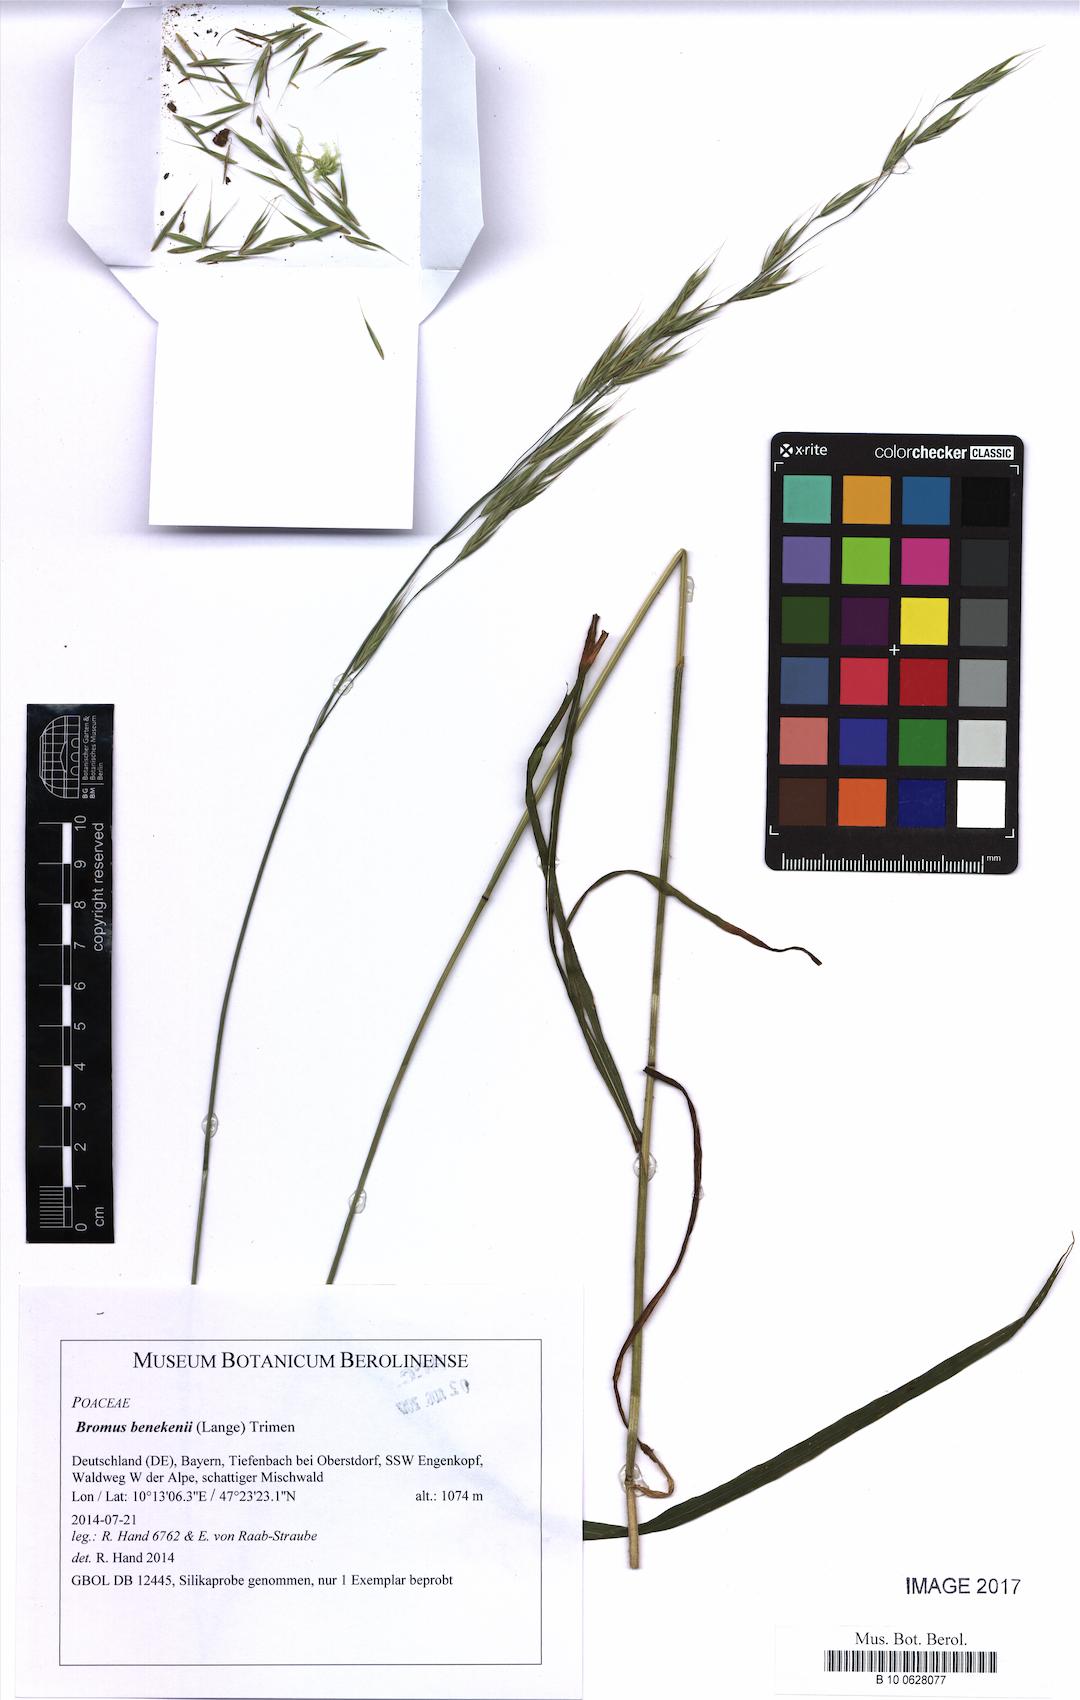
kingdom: Plantae
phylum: Tracheophyta
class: Liliopsida
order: Poales
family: Poaceae
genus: Bromus
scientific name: Bromus benekenii
